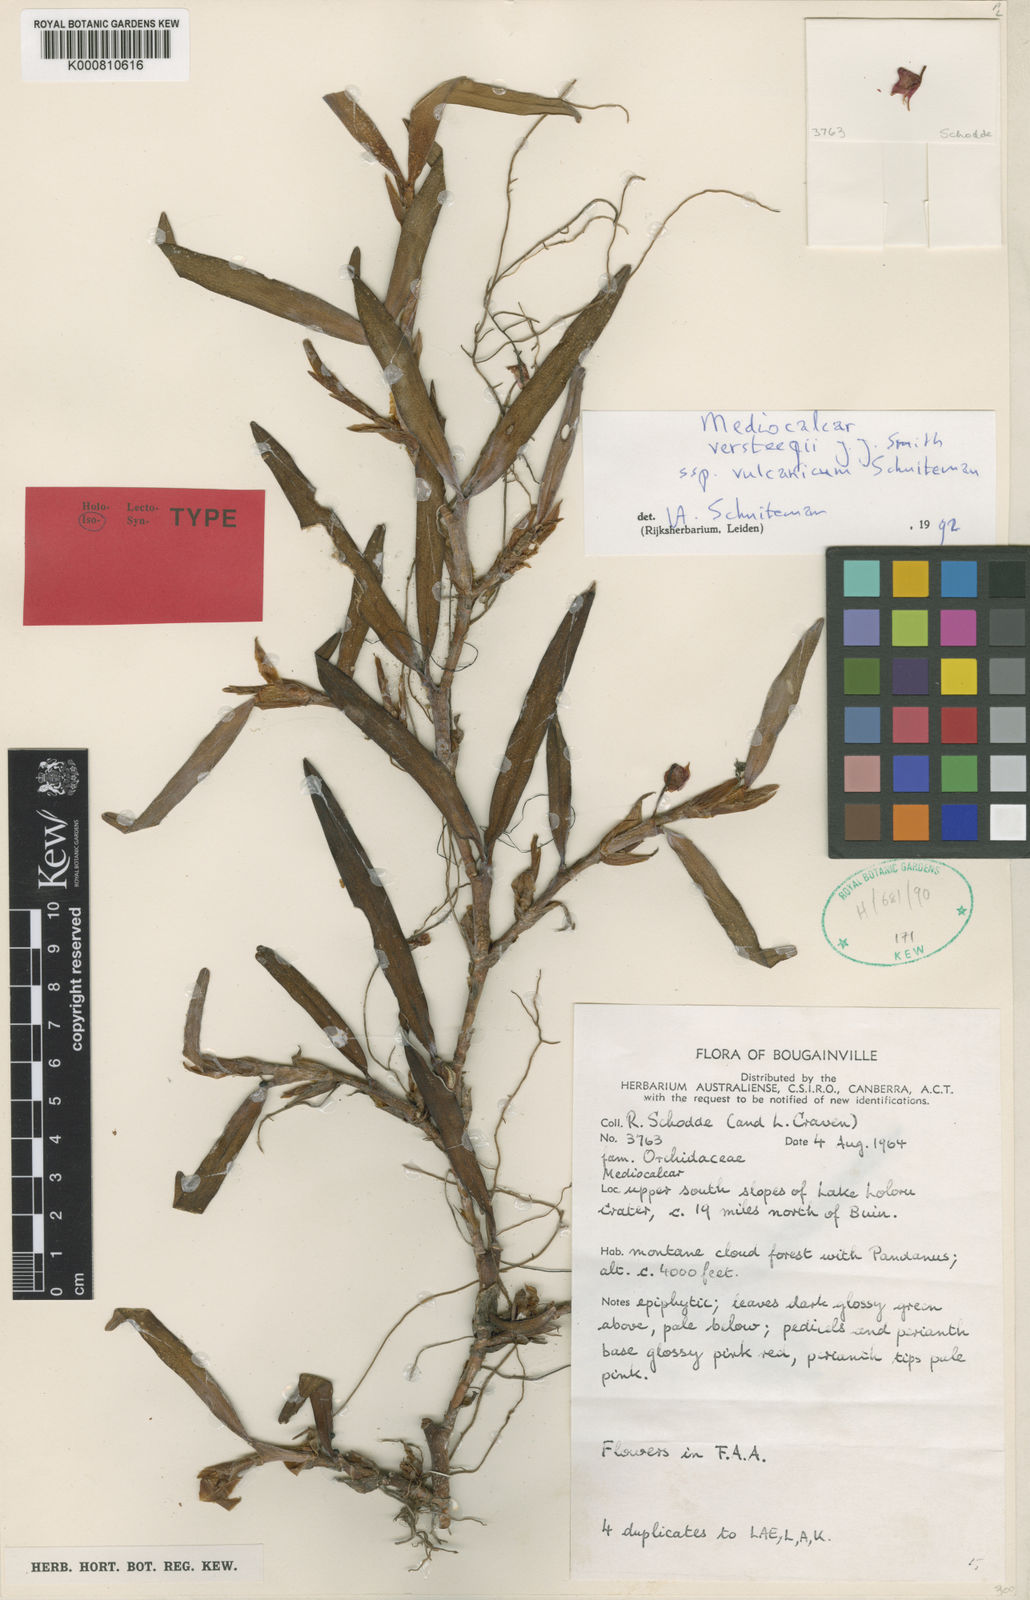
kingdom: Plantae
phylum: Tracheophyta
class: Liliopsida
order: Asparagales
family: Orchidaceae
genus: Mediocalcar
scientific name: Mediocalcar versteegii
